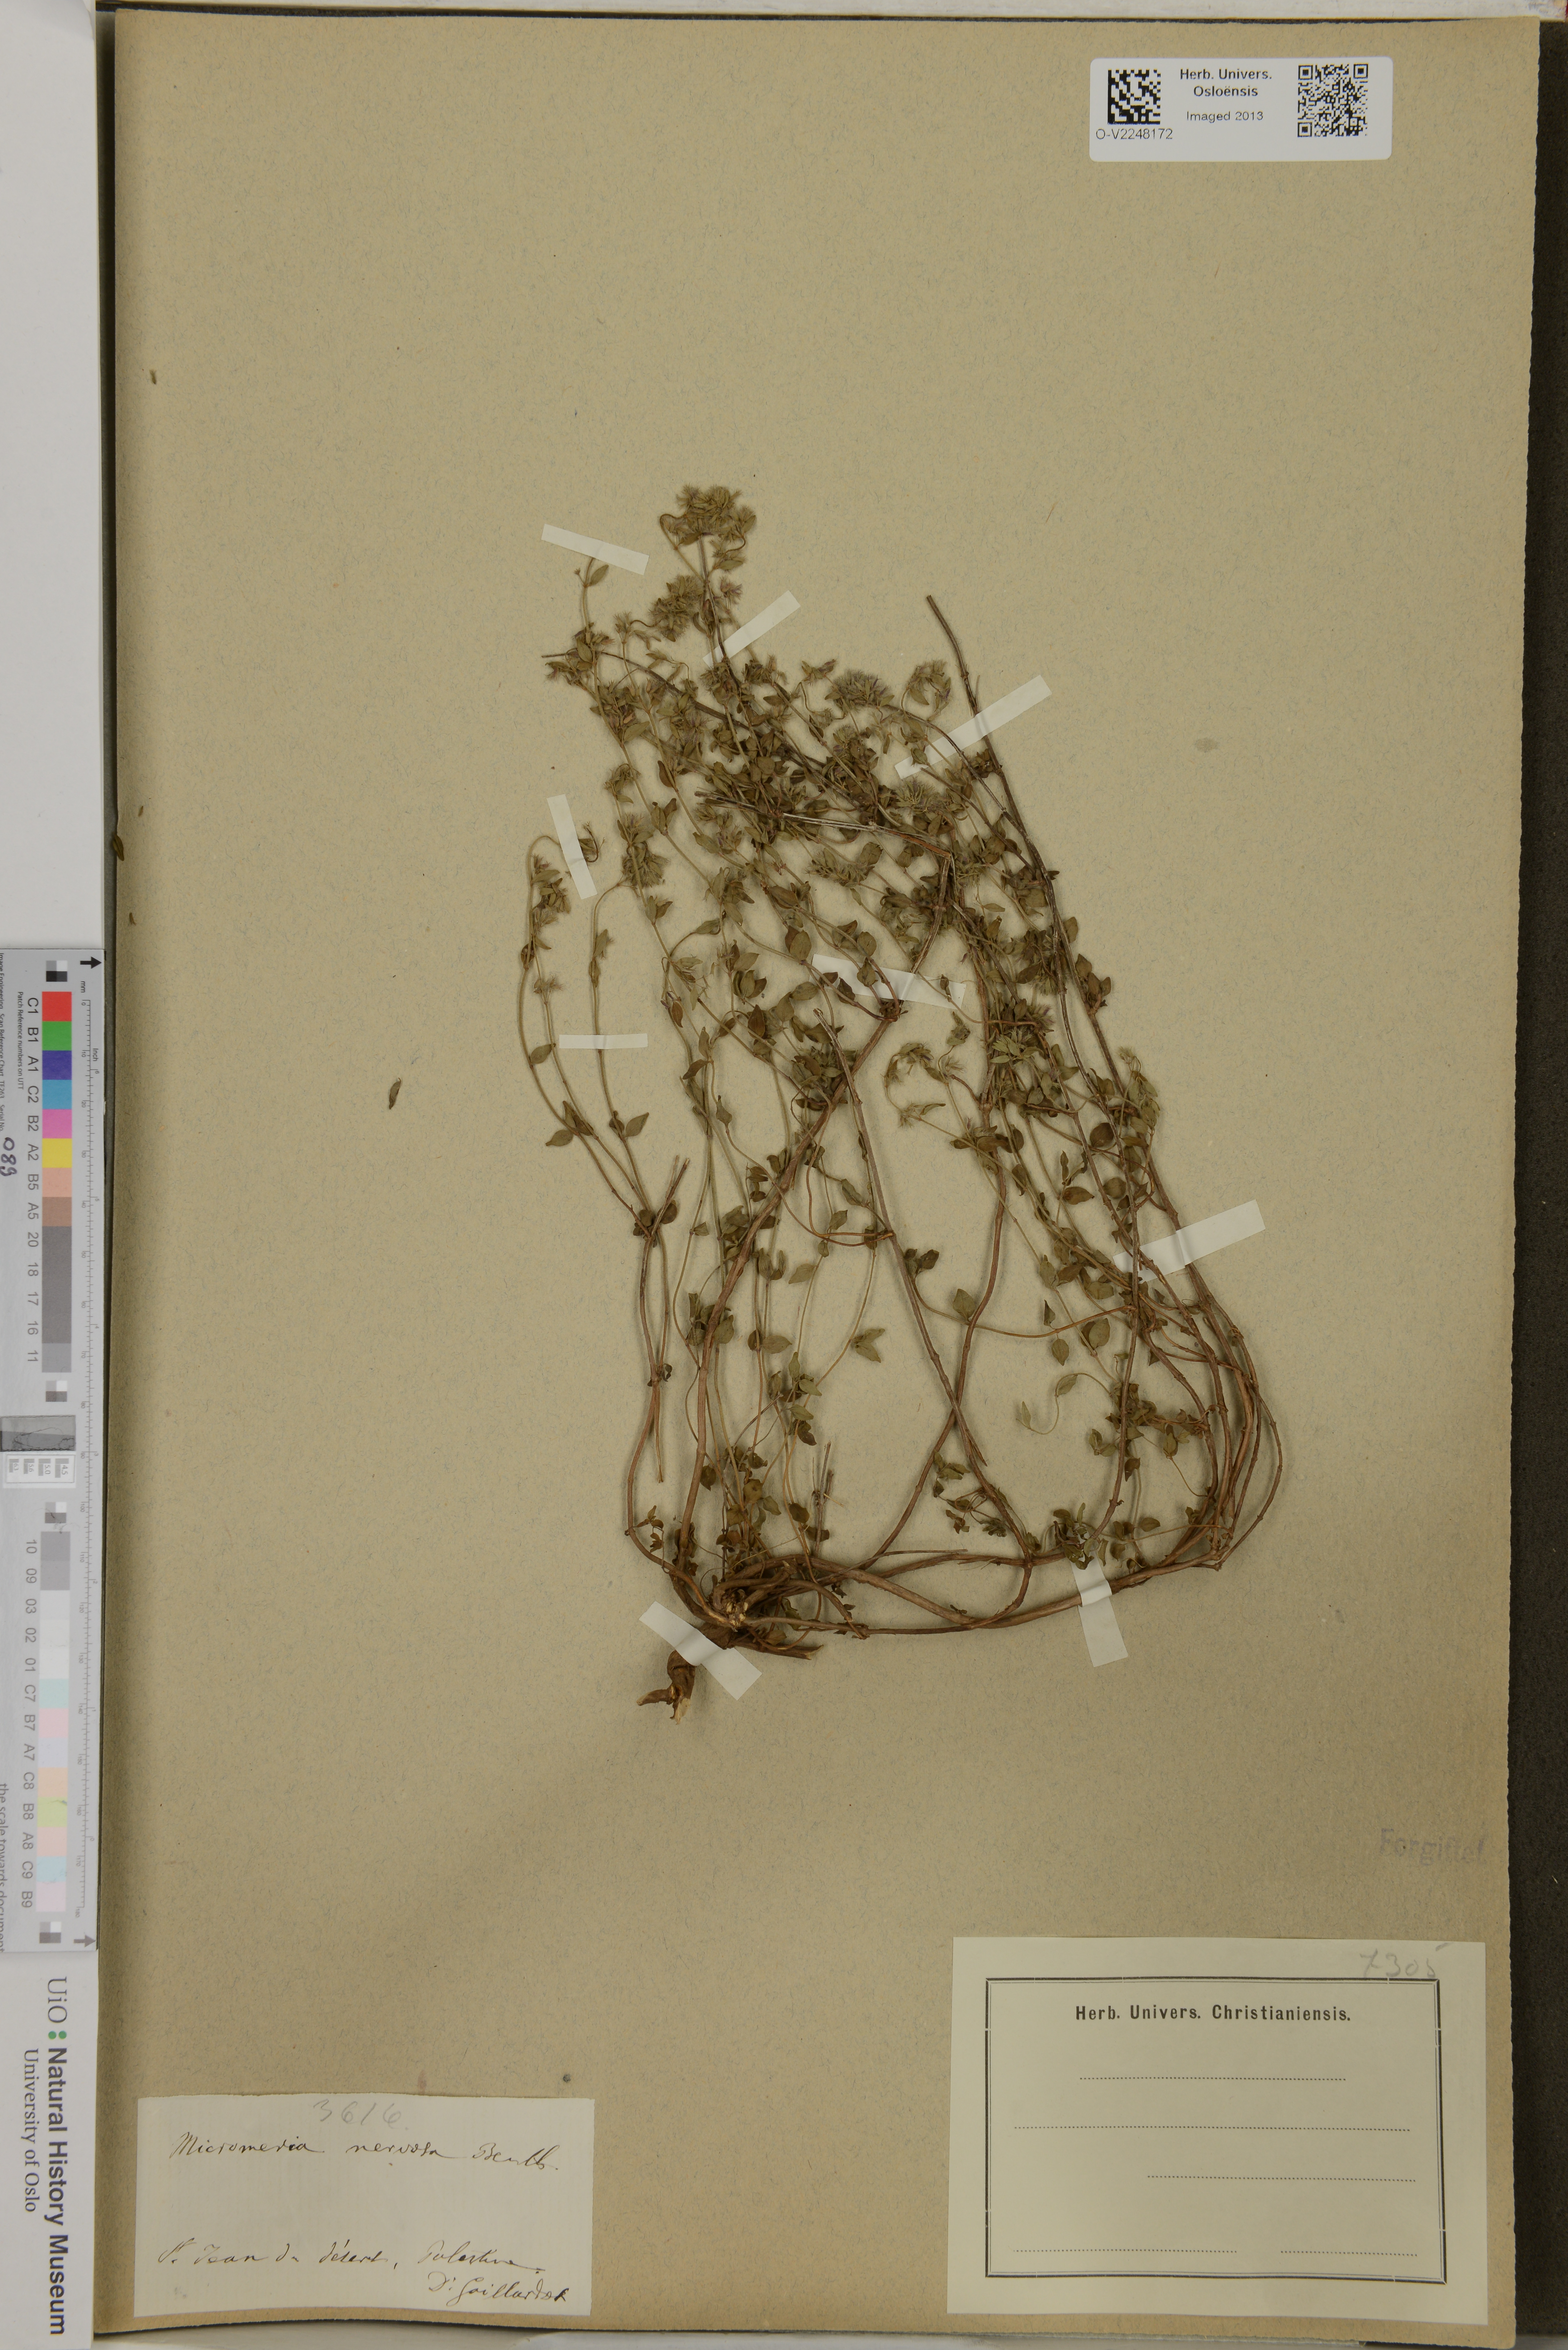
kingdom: Plantae
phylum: Tracheophyta
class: Magnoliopsida
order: Lamiales
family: Lamiaceae
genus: Micromeria
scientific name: Micromeria nervosa
